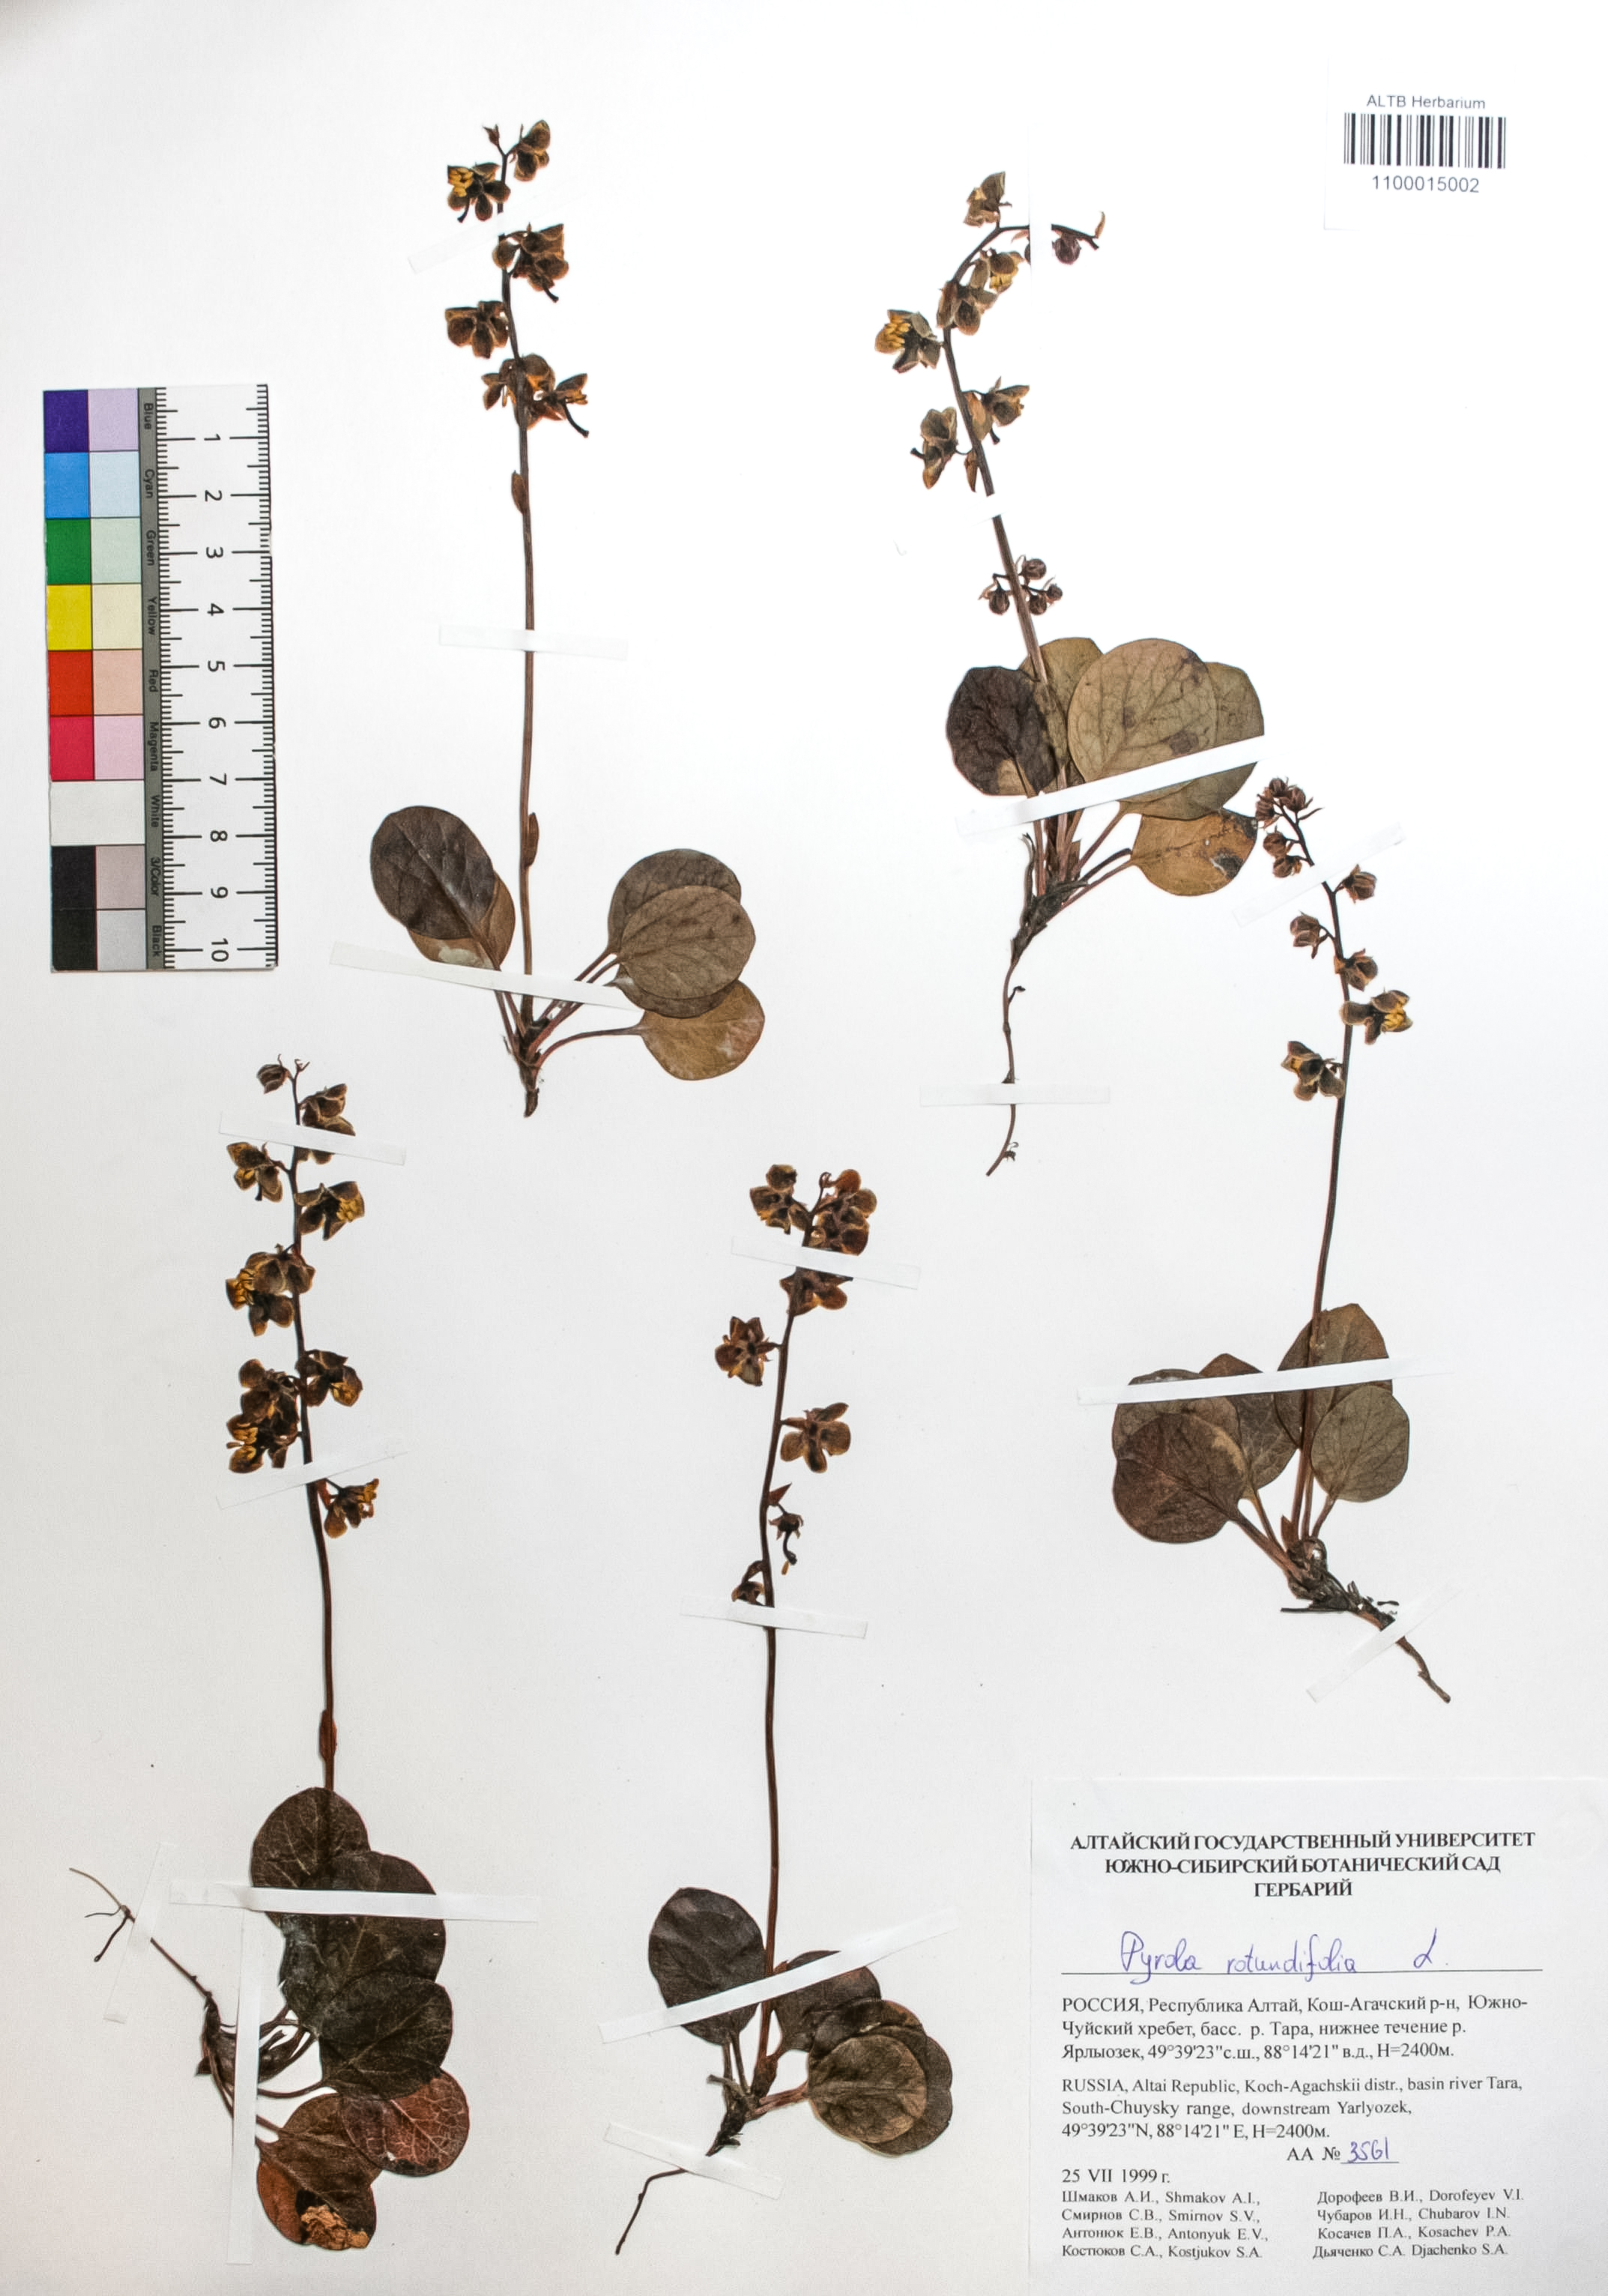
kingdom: Plantae
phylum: Tracheophyta
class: Magnoliopsida
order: Ericales
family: Ericaceae
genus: Pyrola
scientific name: Pyrola rotundifolia
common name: Round-leaved wintergreen
